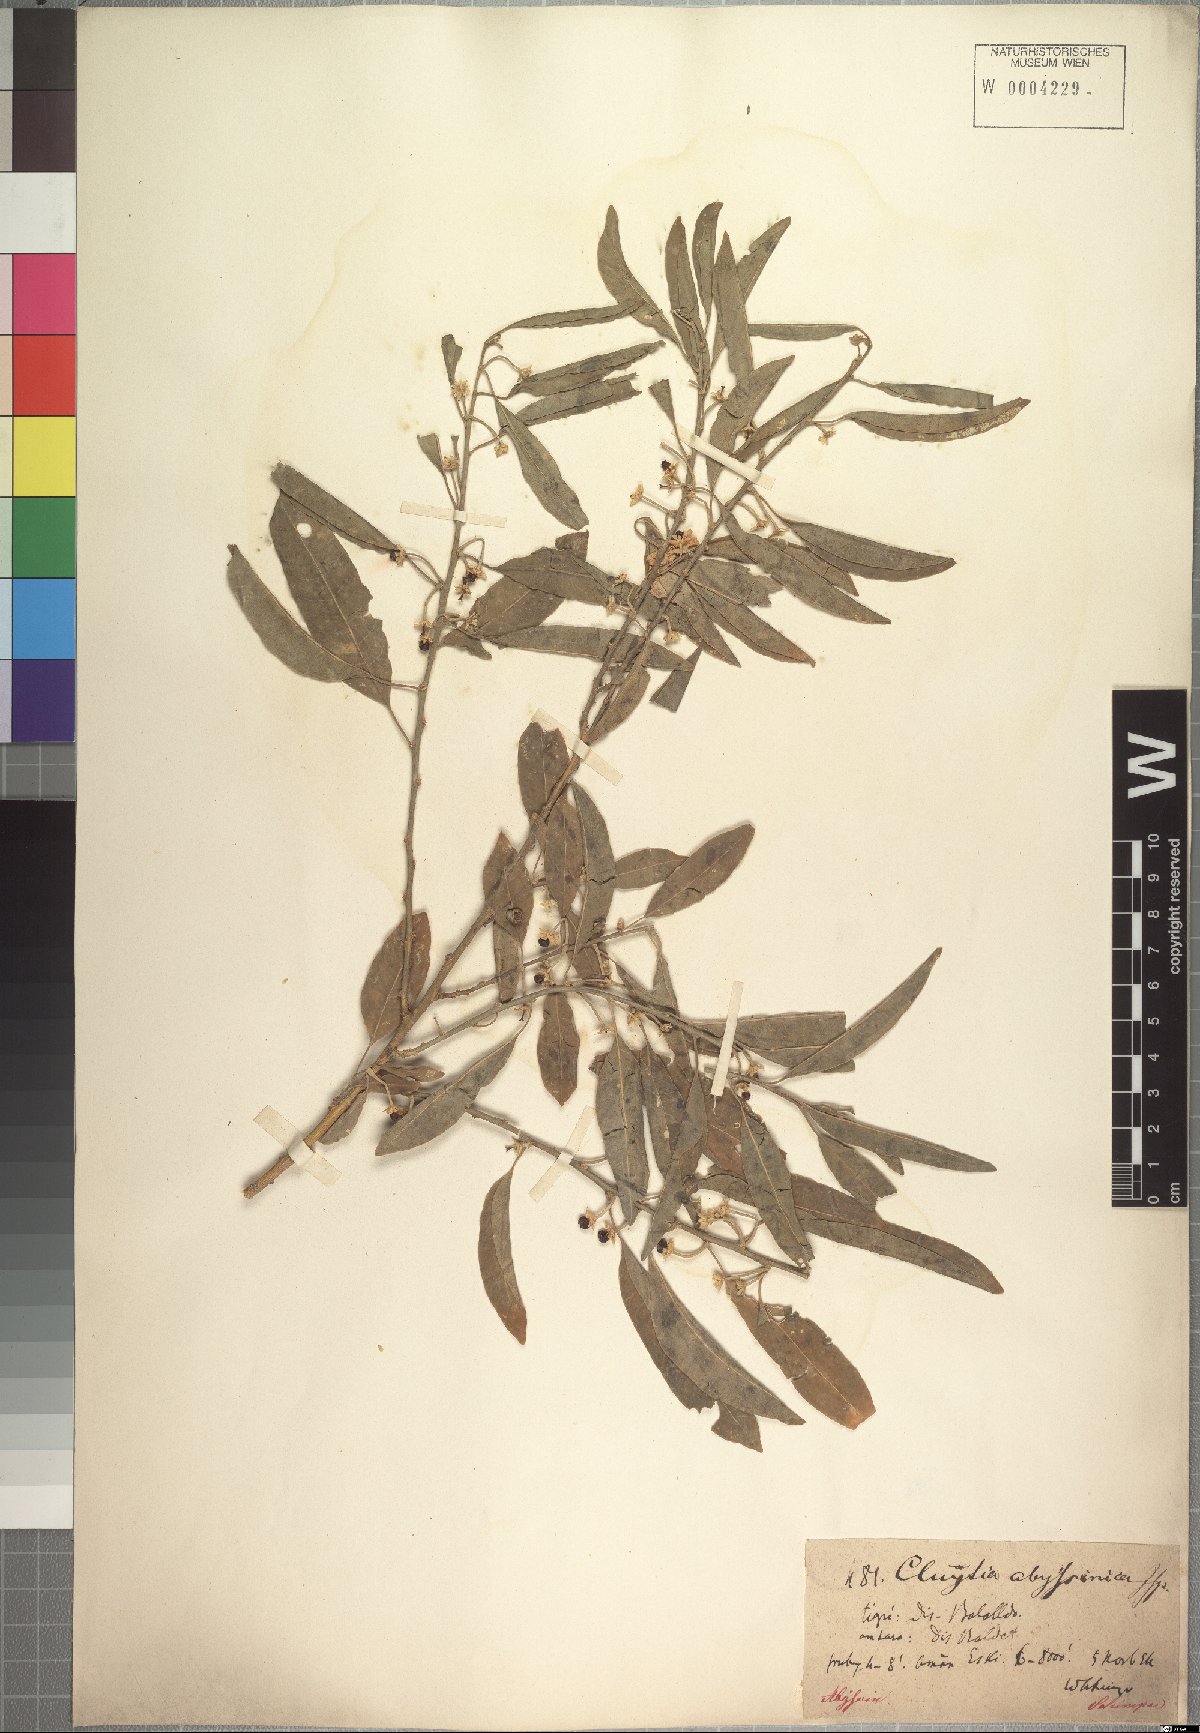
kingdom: Plantae
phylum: Tracheophyta
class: Magnoliopsida
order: Malpighiales
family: Peraceae
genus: Clutia
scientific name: Clutia abyssinica
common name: Large lightning bush
